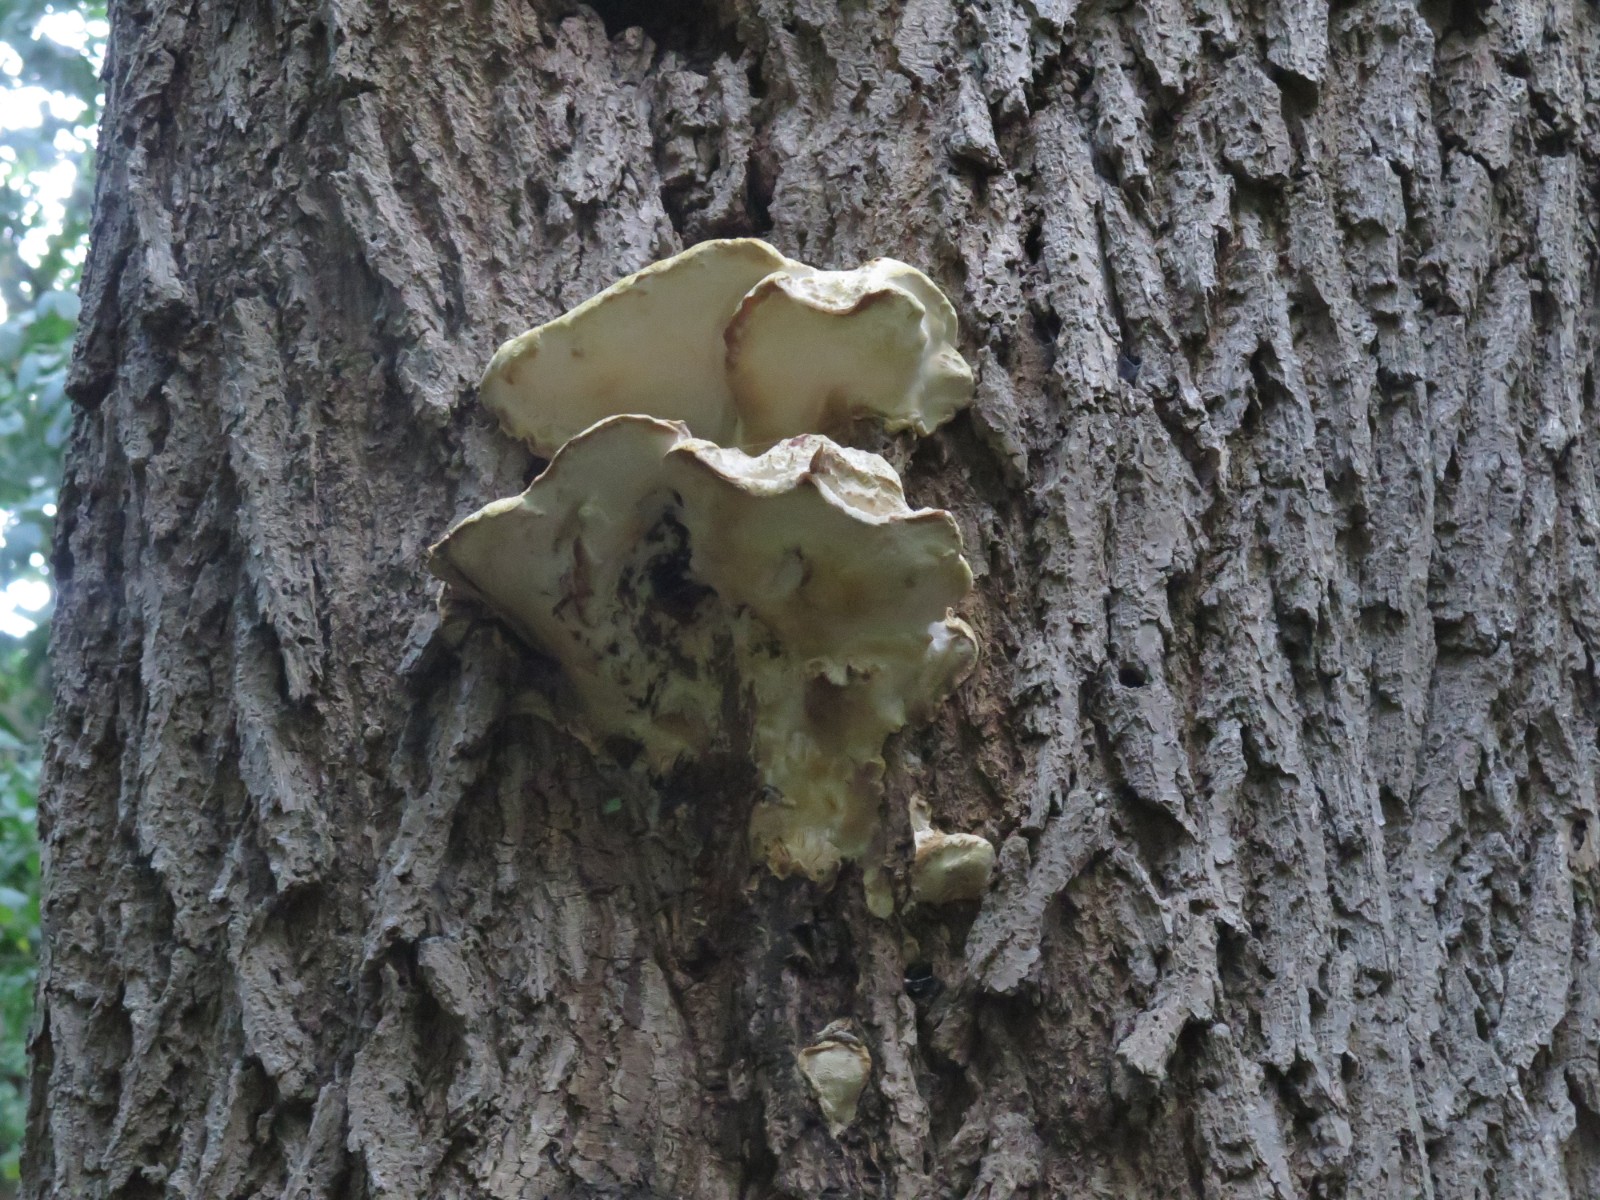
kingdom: Fungi
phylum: Basidiomycota
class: Agaricomycetes
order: Polyporales
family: Meruliaceae
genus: Pappia
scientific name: Pappia fissilis
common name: sej fedtporesvamp
